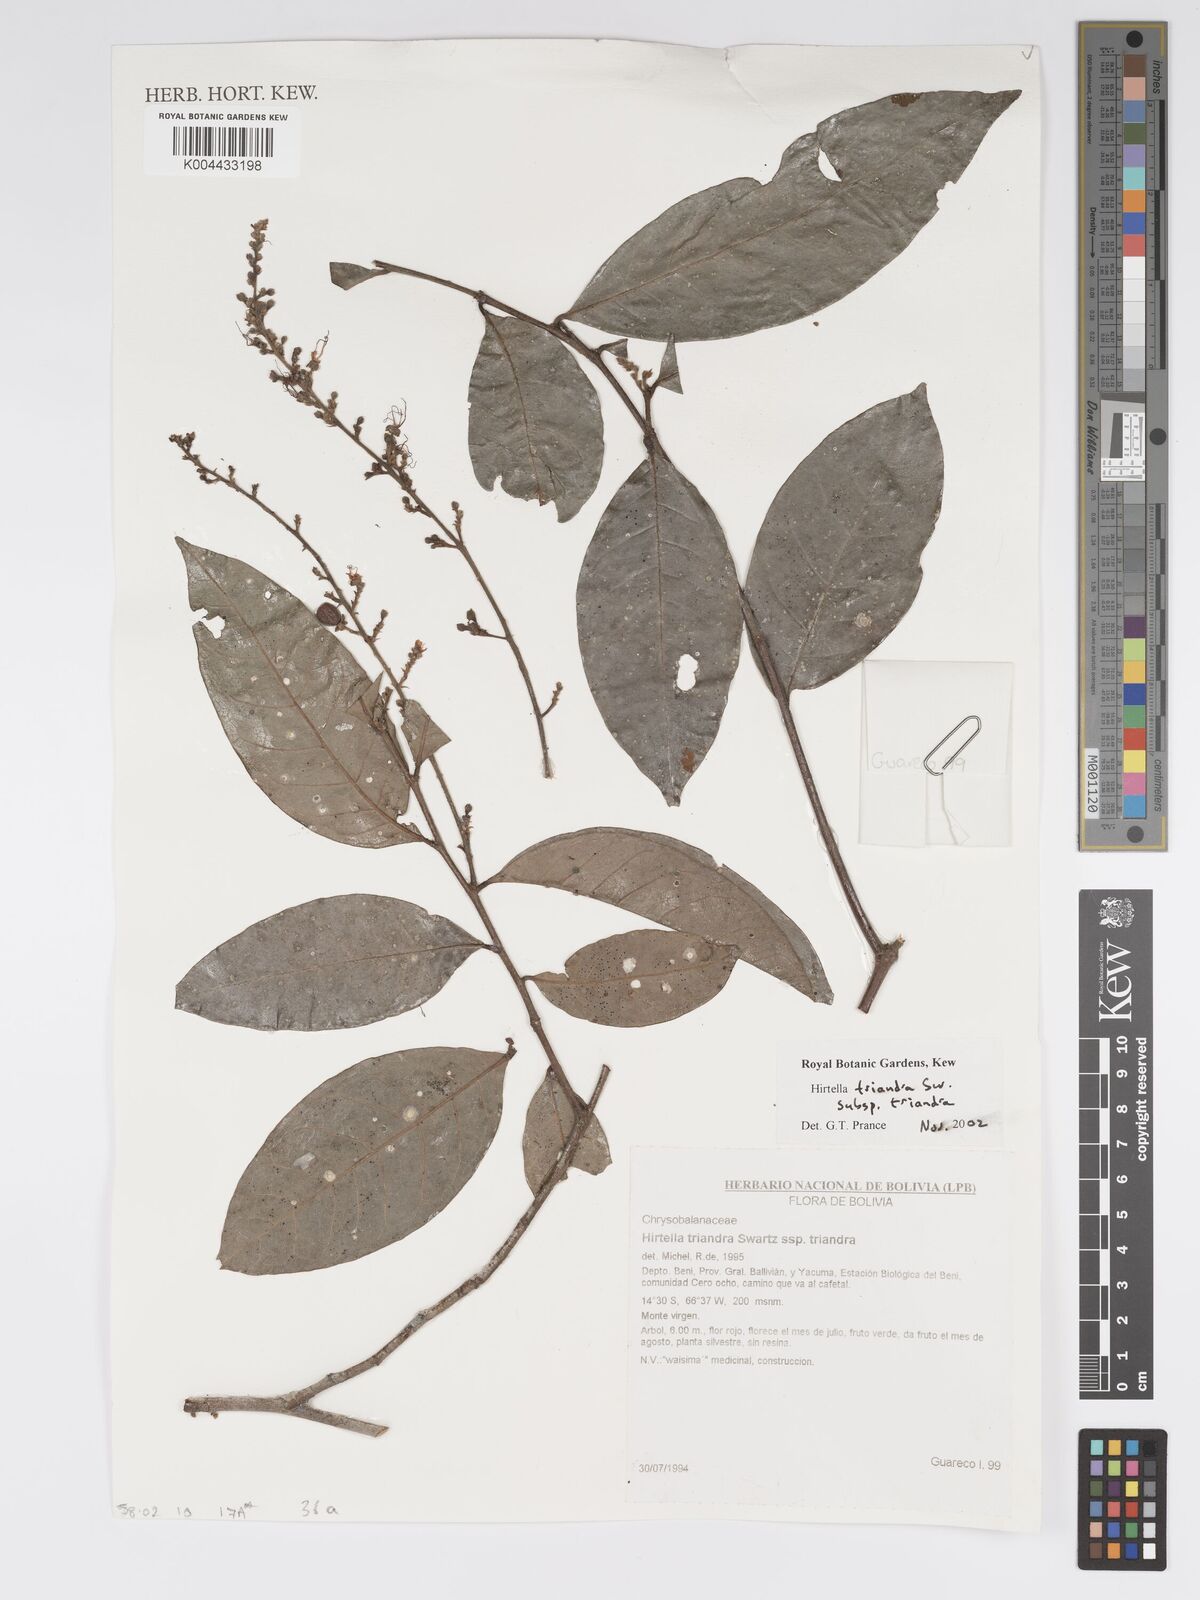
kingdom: Plantae
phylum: Tracheophyta
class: Magnoliopsida
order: Malpighiales
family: Chrysobalanaceae
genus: Hirtella
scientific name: Hirtella triandra
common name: Hairy plum
